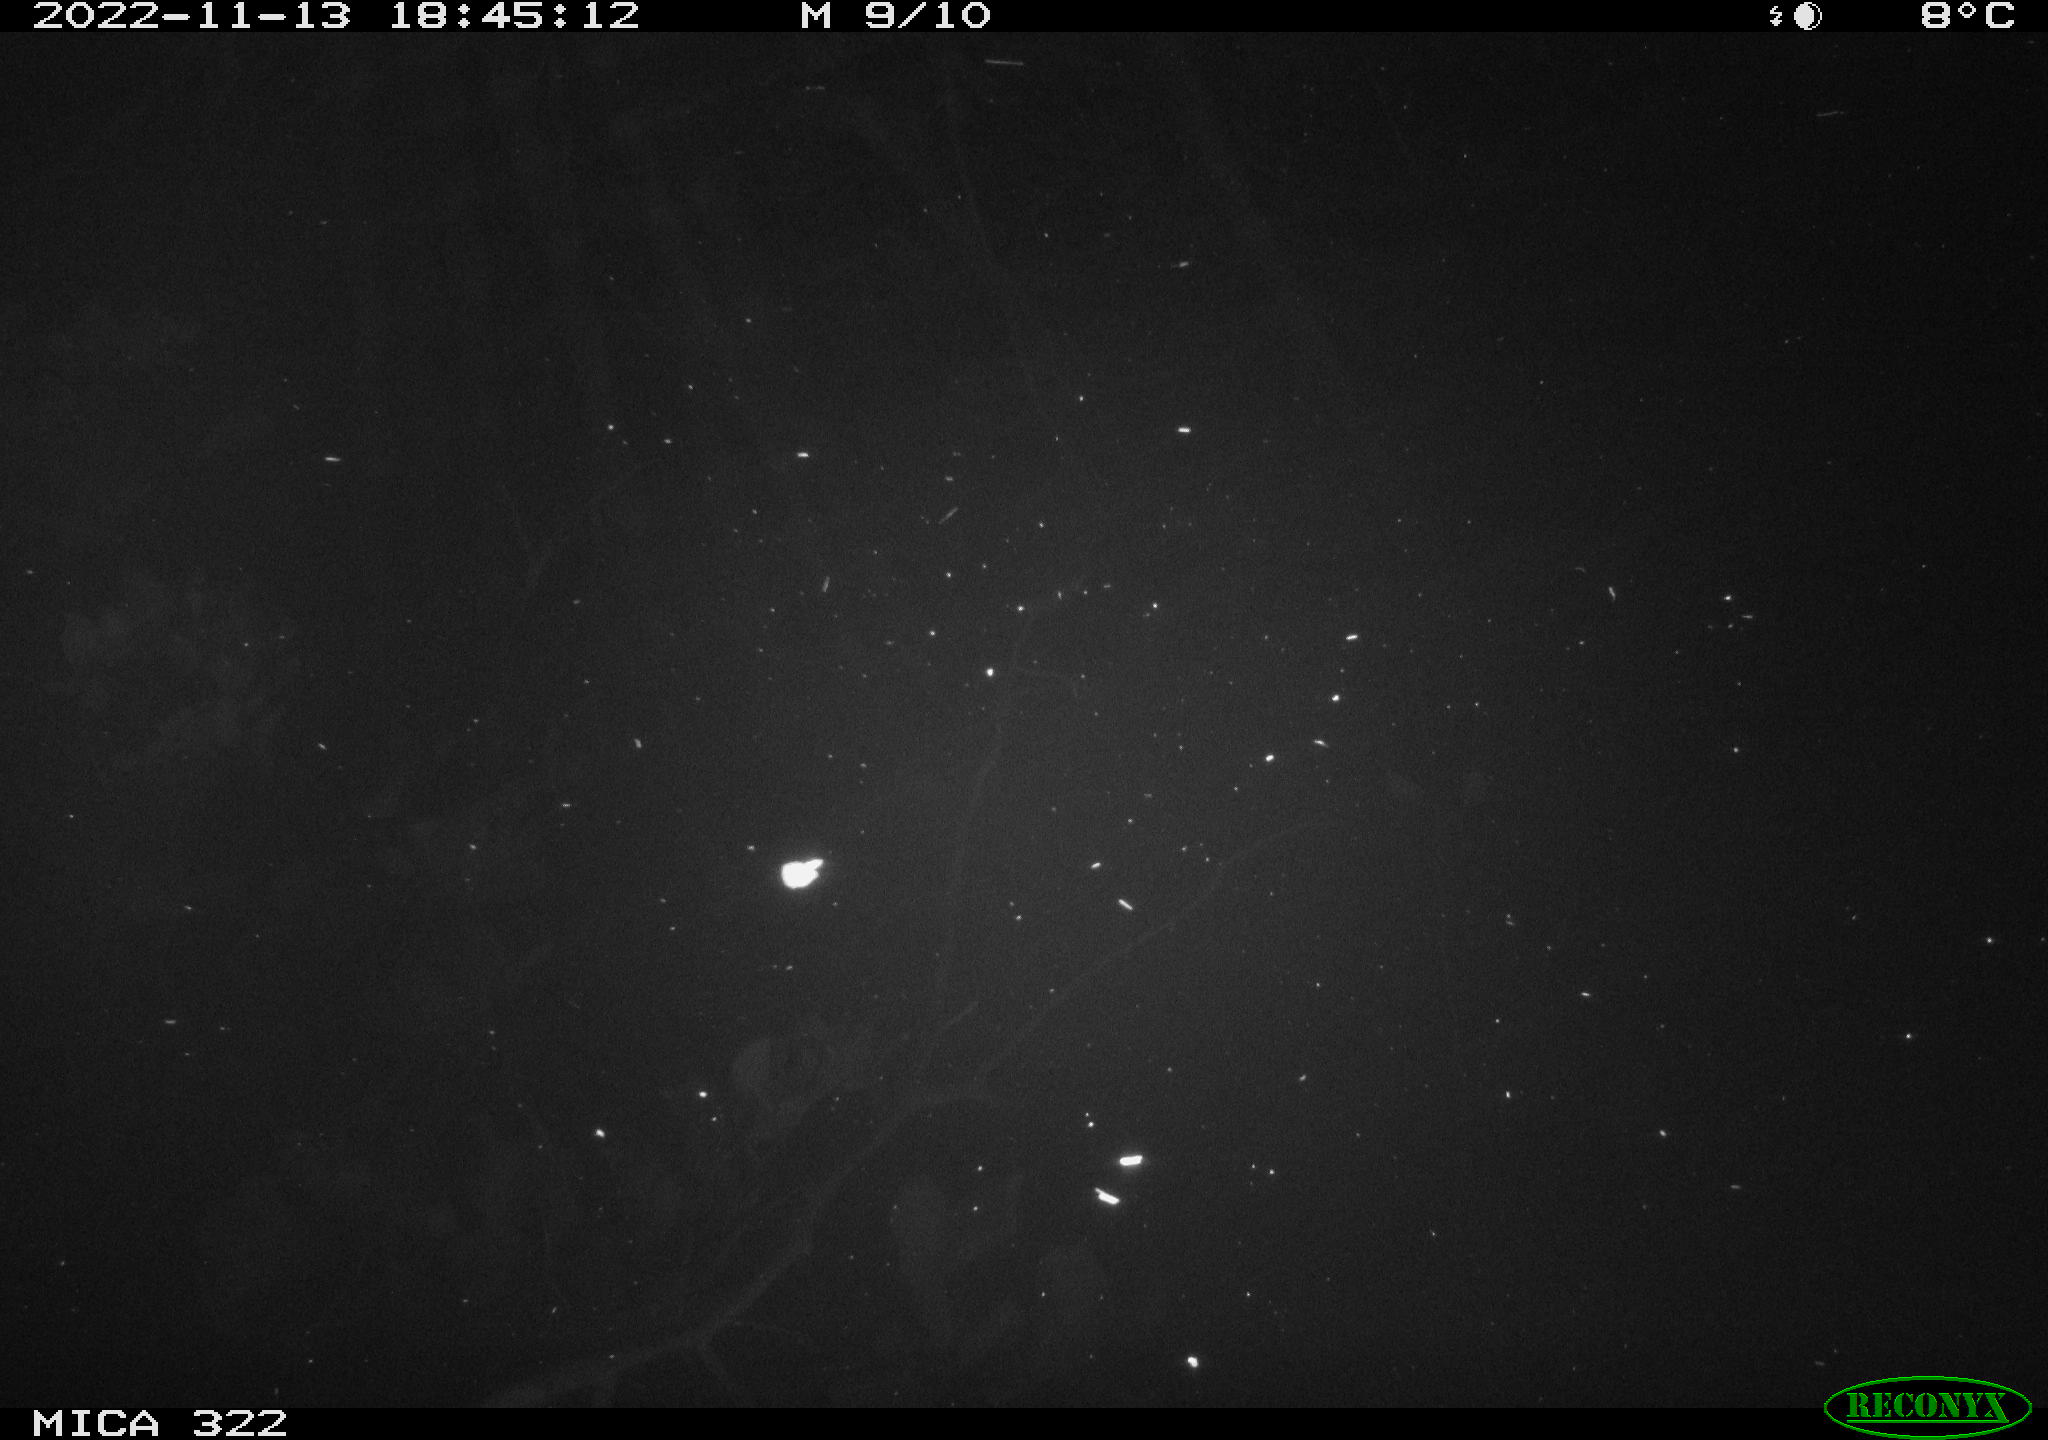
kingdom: Animalia
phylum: Chordata
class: Mammalia
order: Rodentia
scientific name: Rodentia
